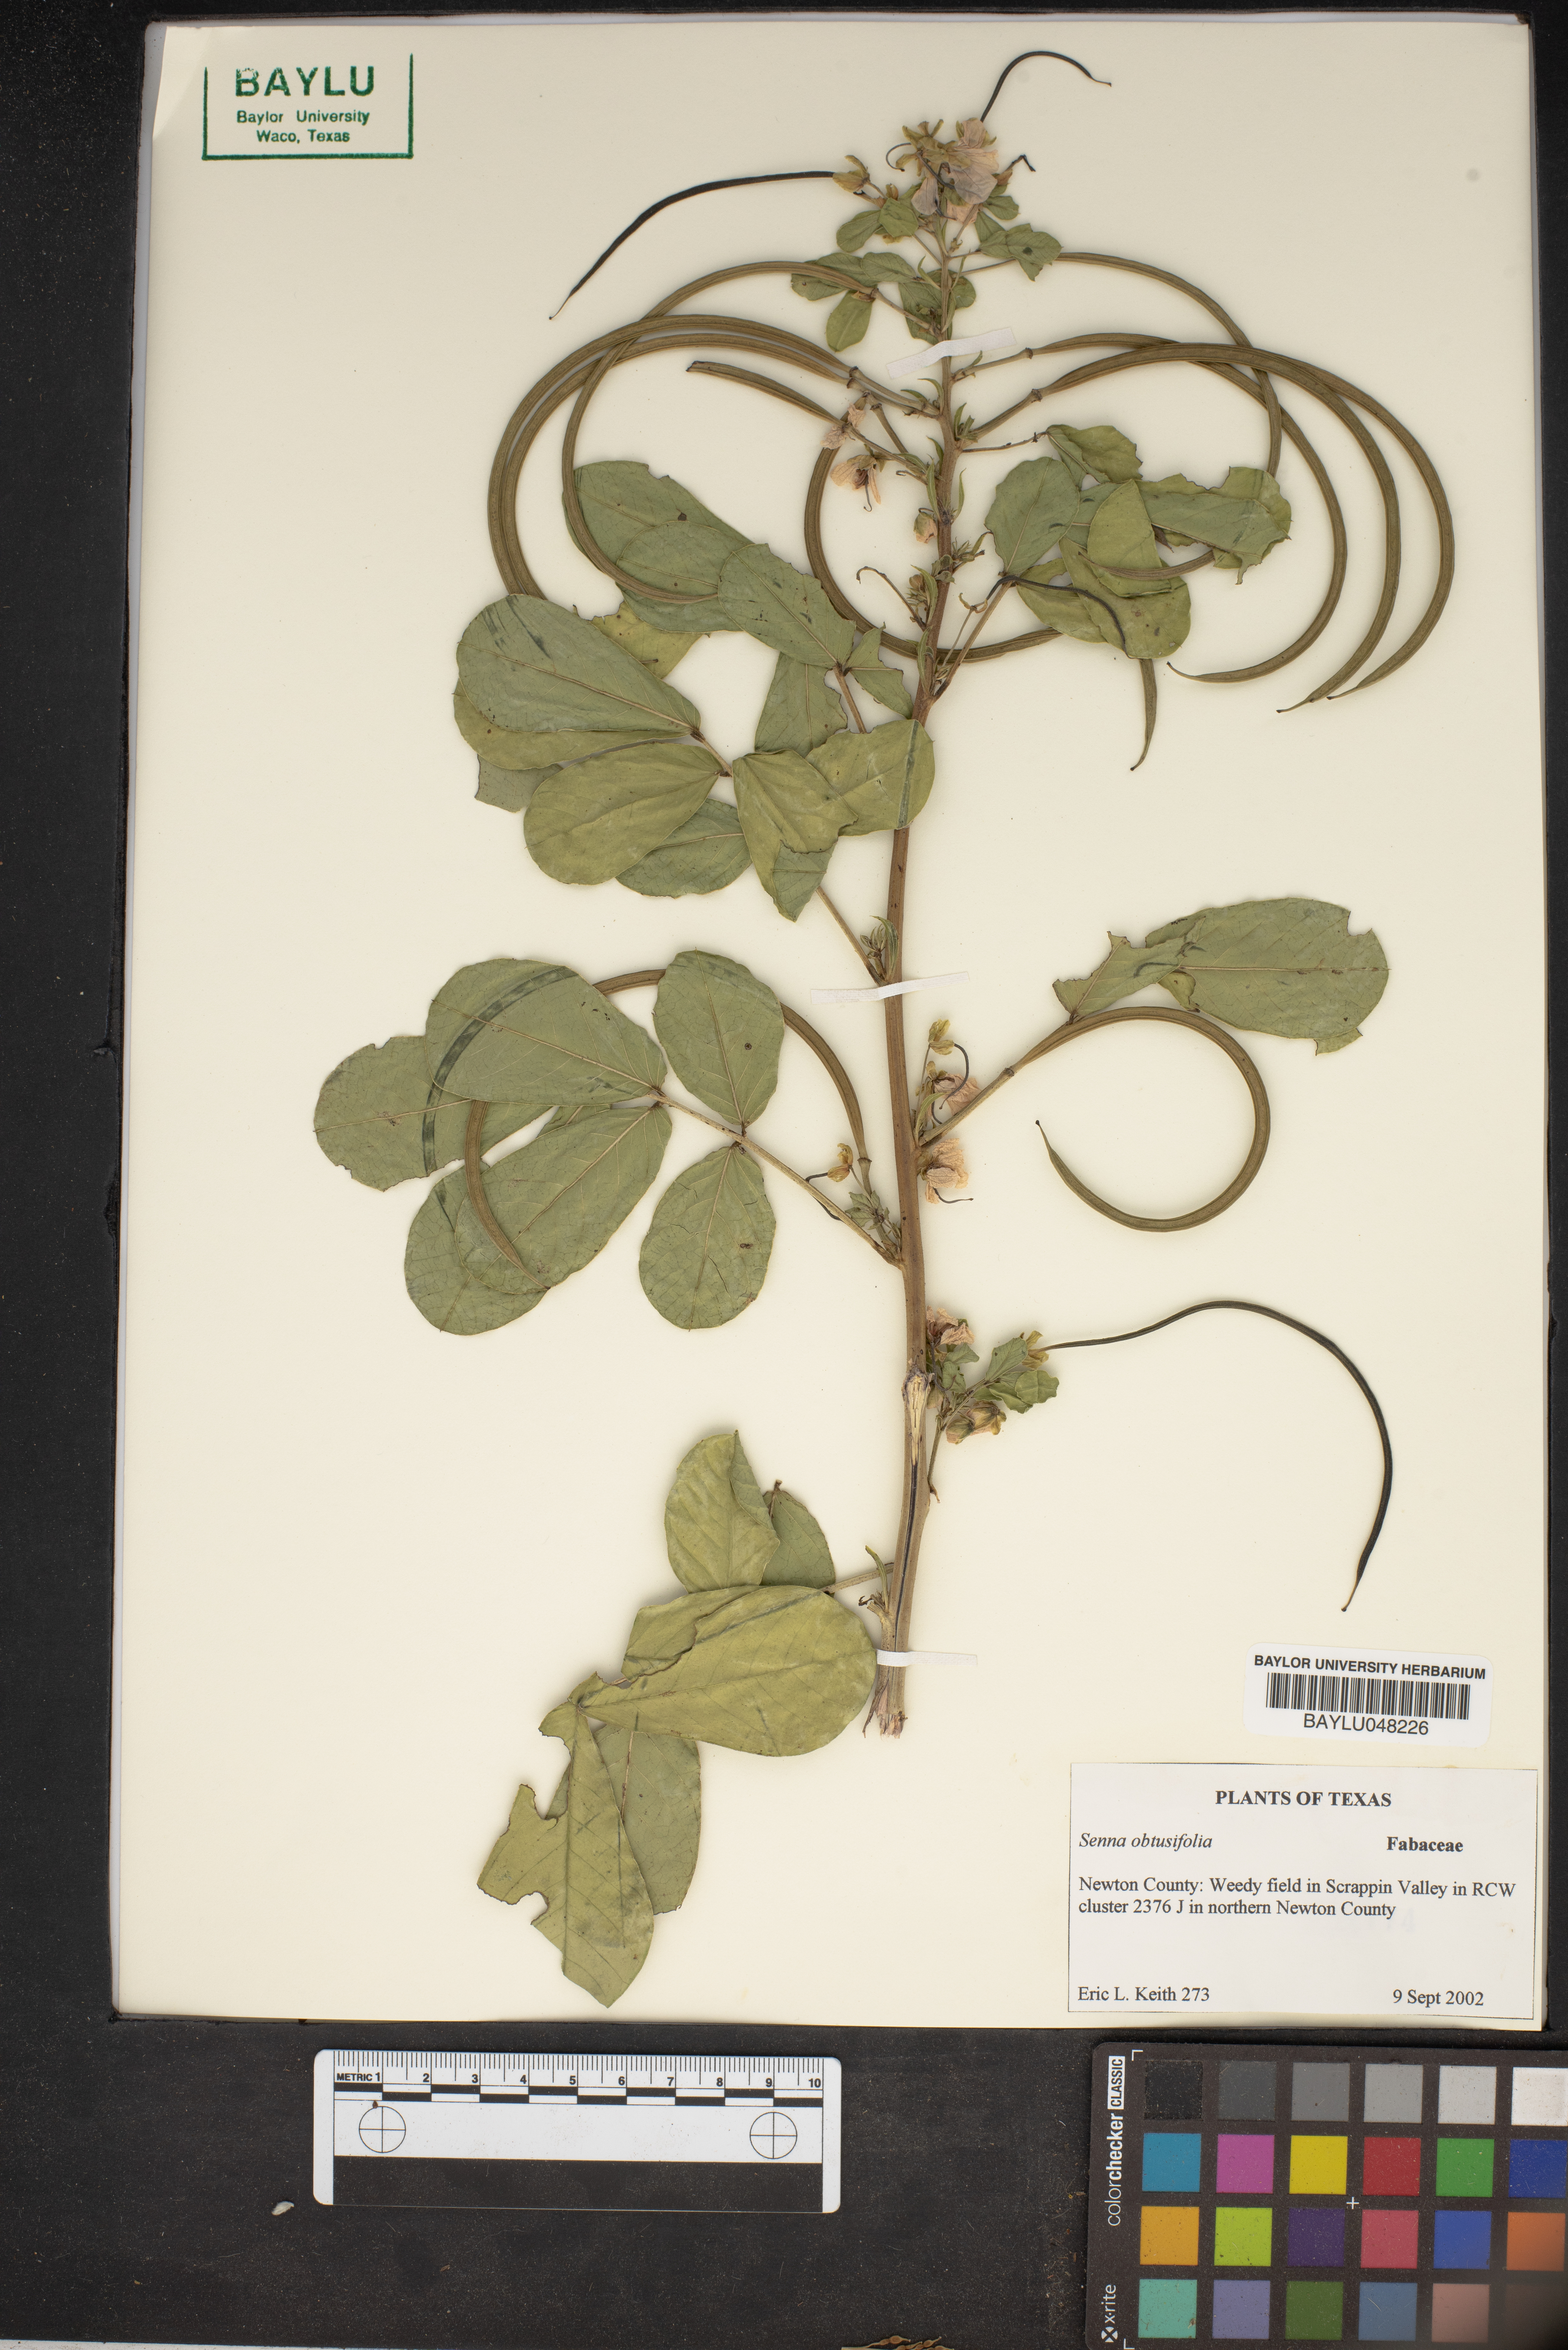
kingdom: Plantae
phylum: Tracheophyta
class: Magnoliopsida
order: Fabales
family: Fabaceae
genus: Senna
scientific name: Senna obtusifolia
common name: Java-bean
